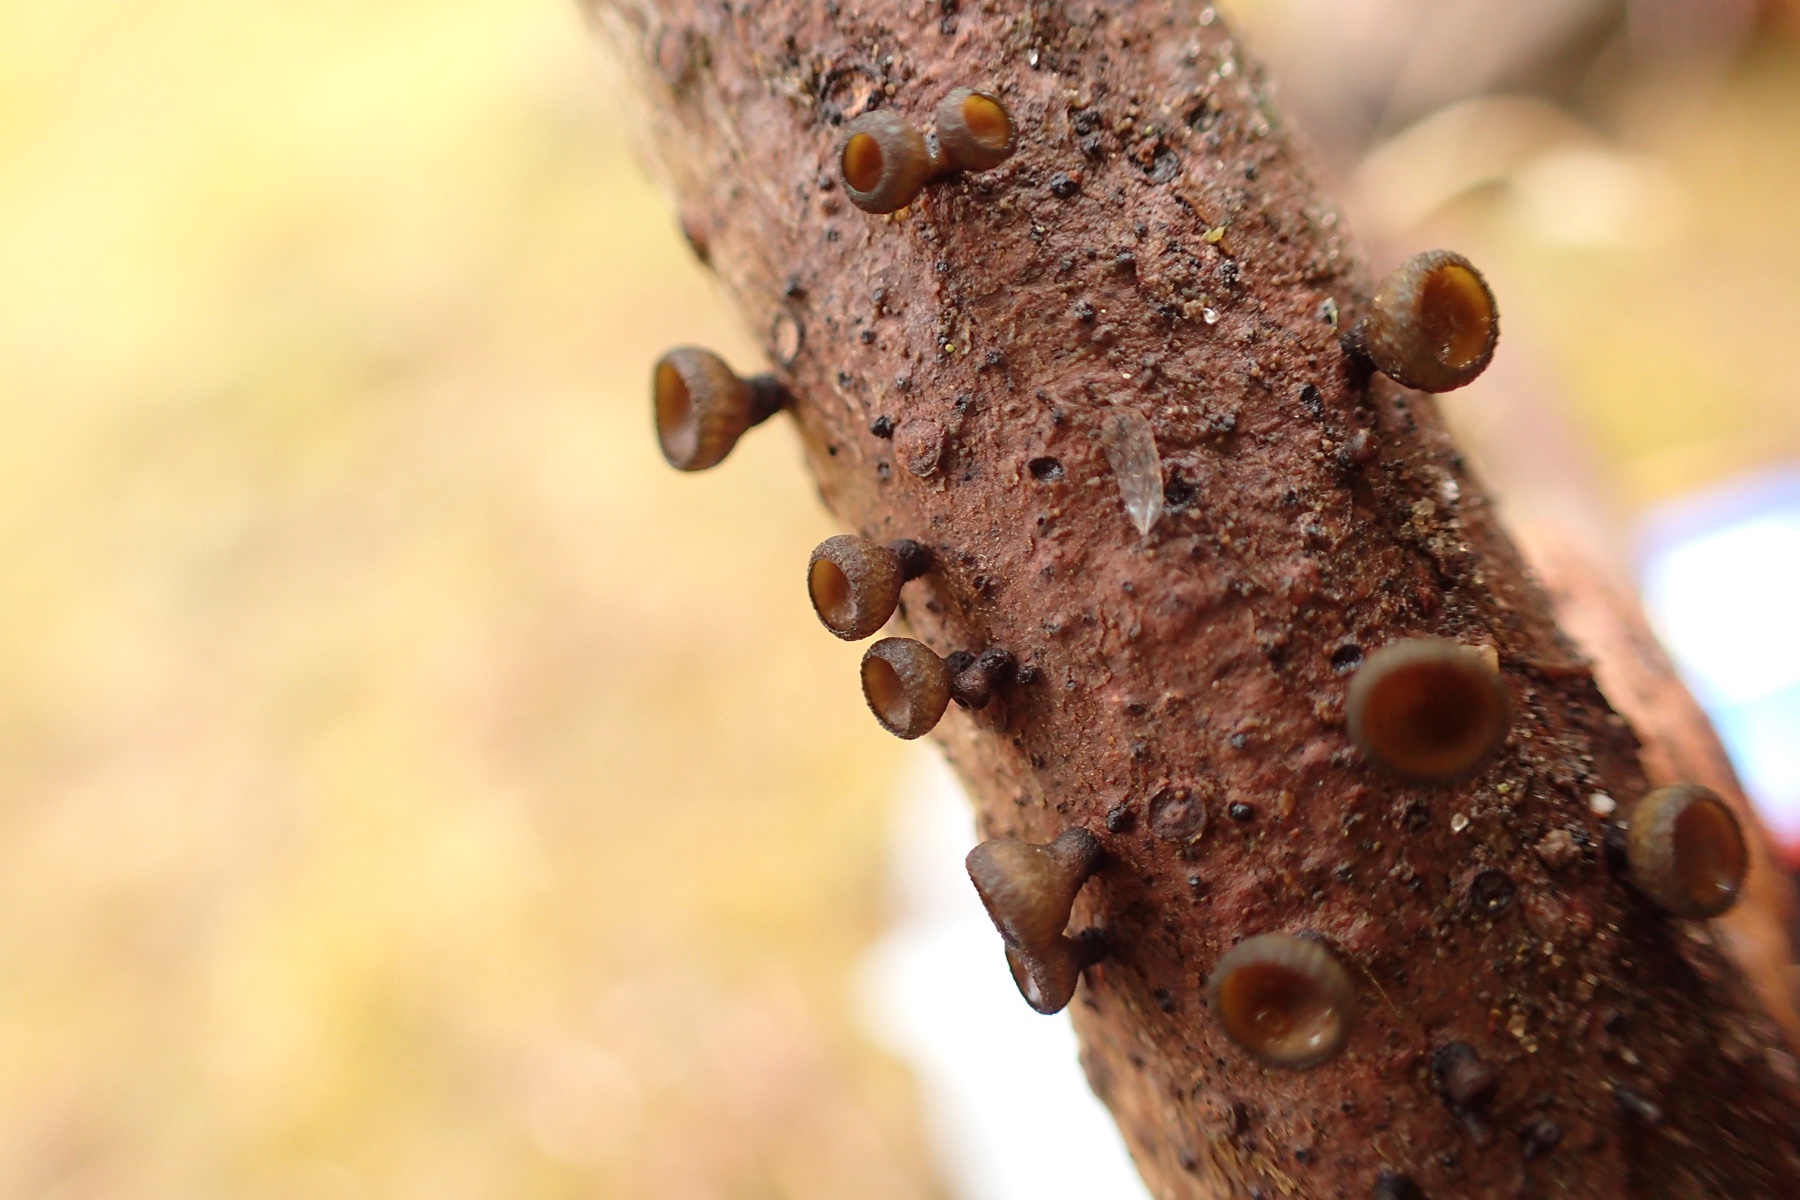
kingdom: Fungi
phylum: Ascomycota
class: Leotiomycetes
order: Helotiales
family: Rutstroemiaceae
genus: Rutstroemia
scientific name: Rutstroemia elatina
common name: ædelgran-brunskive
